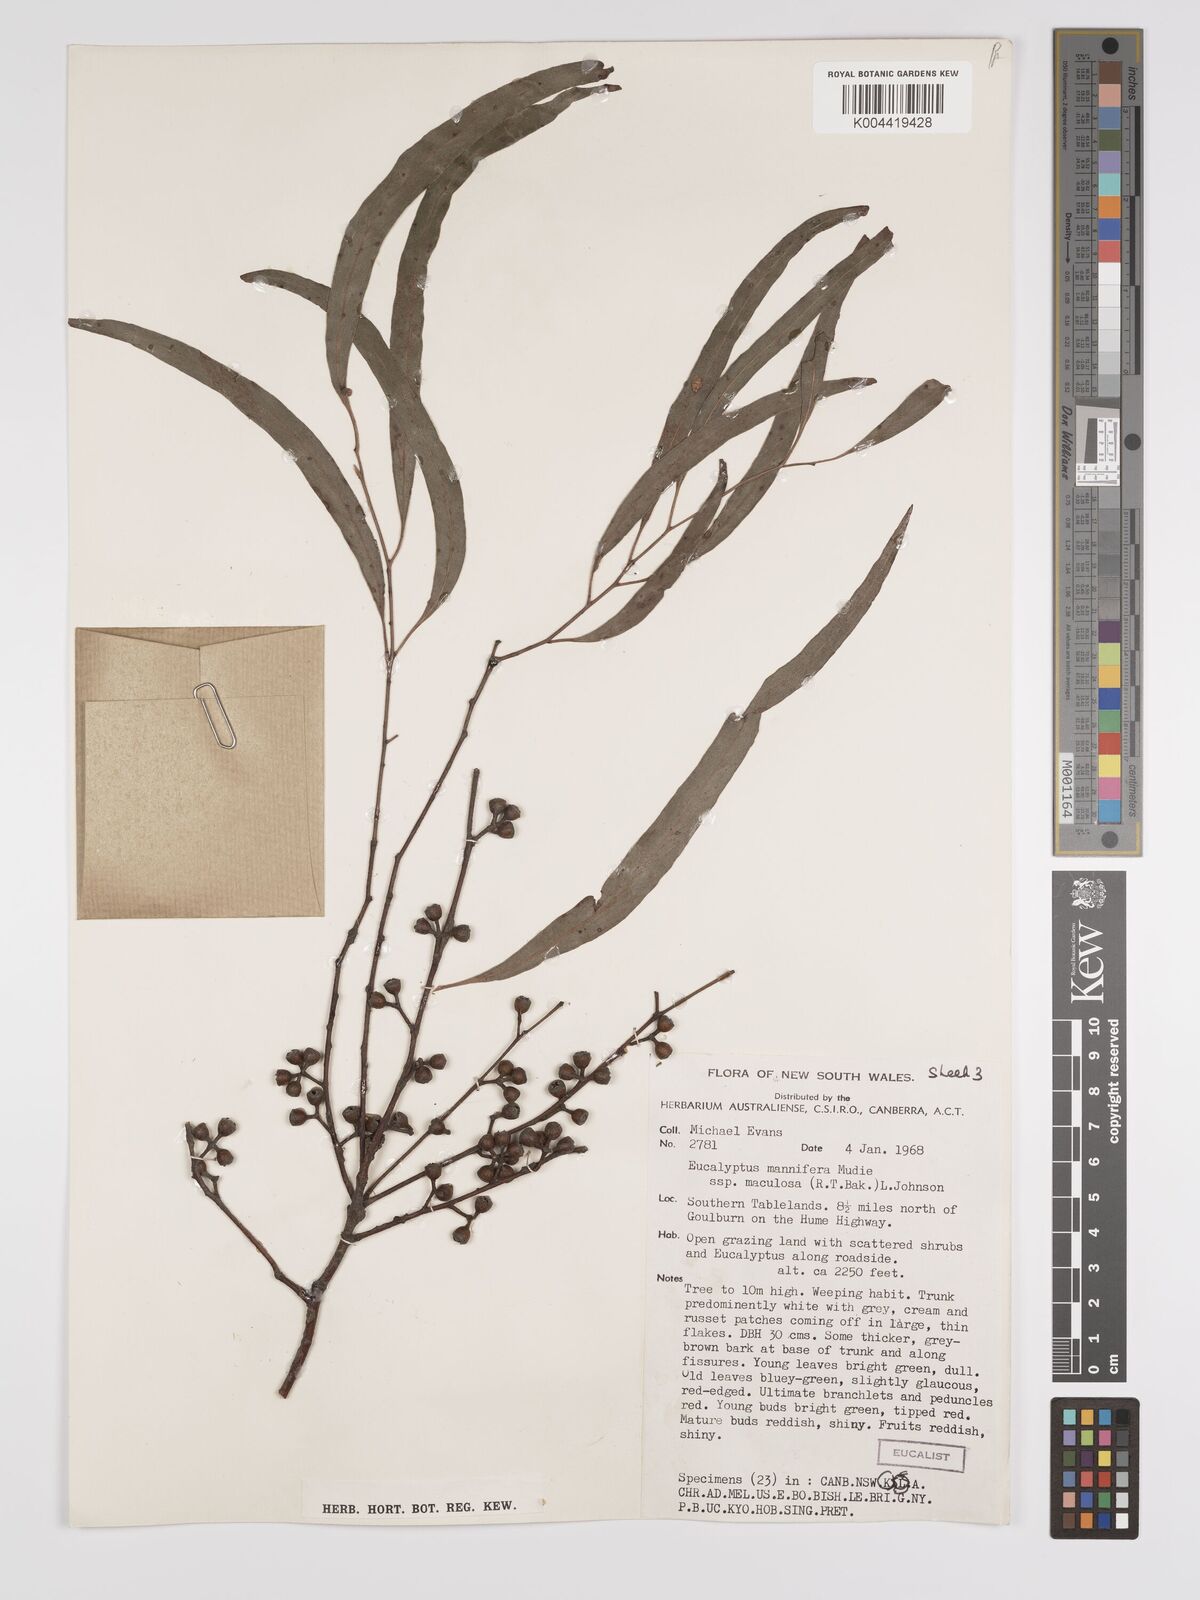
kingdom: Plantae
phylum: Tracheophyta
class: Magnoliopsida
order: Myrtales
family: Myrtaceae
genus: Eucalyptus
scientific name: Eucalyptus mannifera
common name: Manna gum
